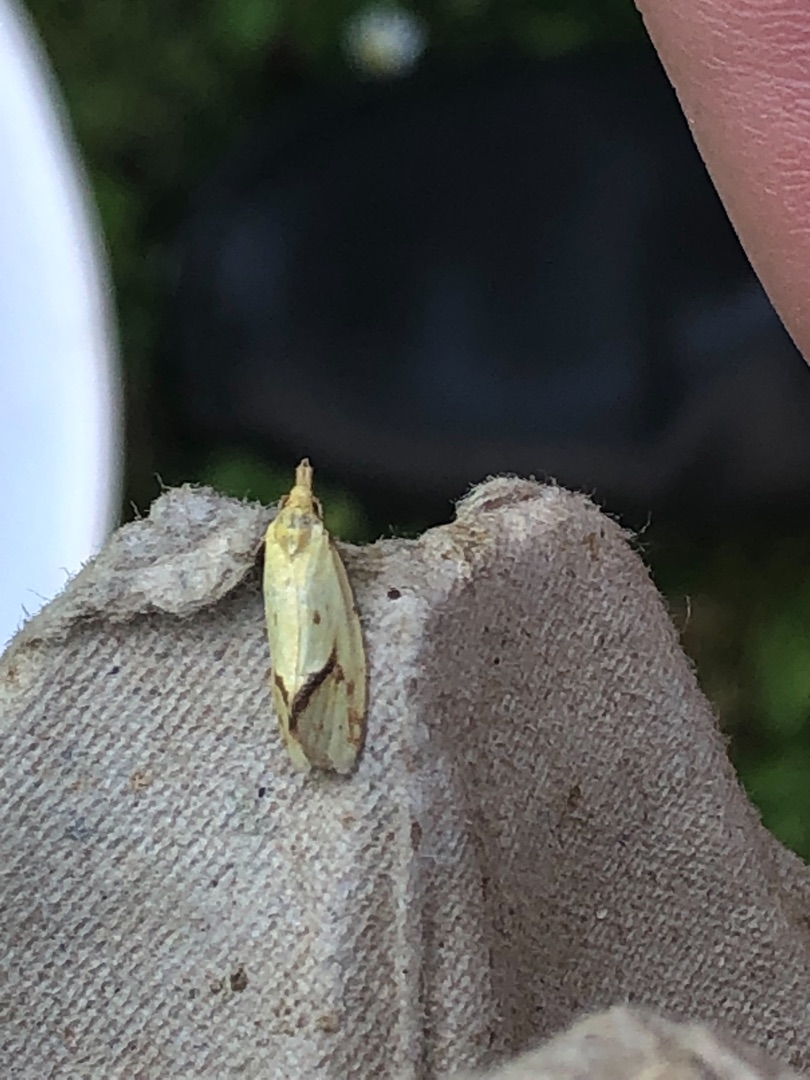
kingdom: Animalia
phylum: Arthropoda
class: Insecta
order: Lepidoptera
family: Tortricidae
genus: Agapeta
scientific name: Agapeta hamana
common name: Tidselgulvikler
